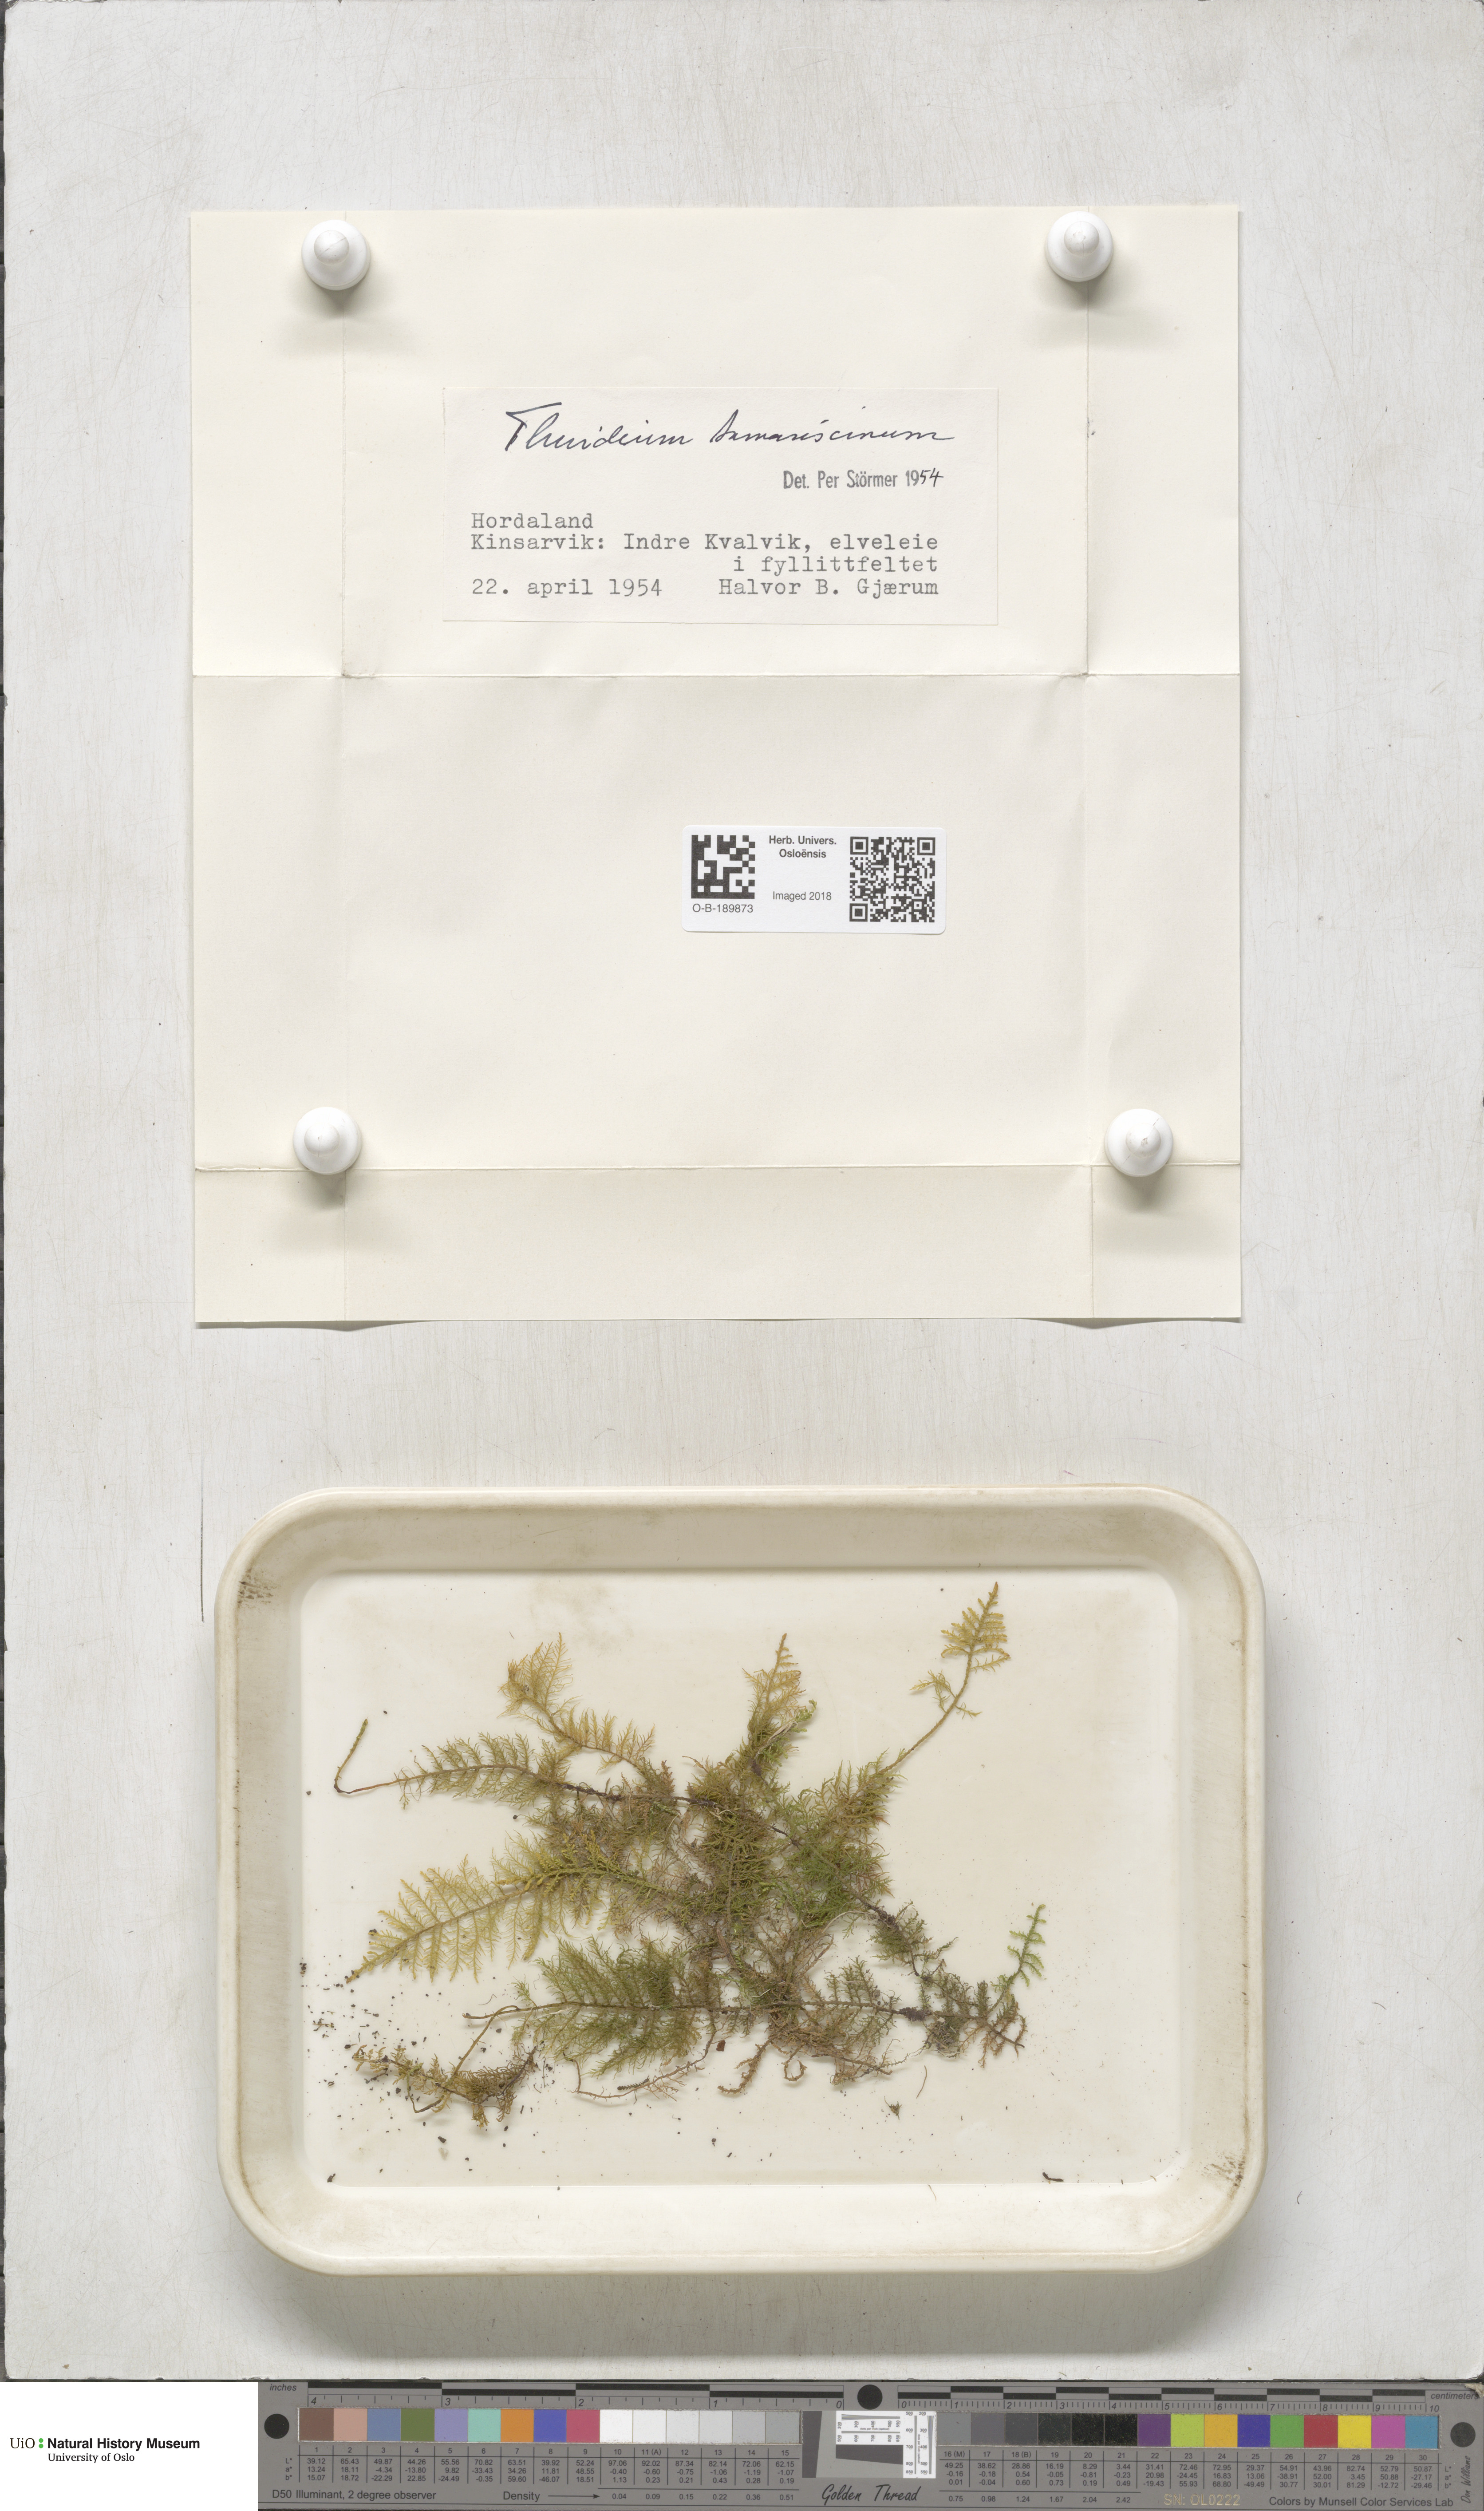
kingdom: Plantae
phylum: Bryophyta
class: Bryopsida
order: Hypnales
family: Thuidiaceae
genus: Thuidium
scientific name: Thuidium tamariscinum
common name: Common tamarisk-moss
